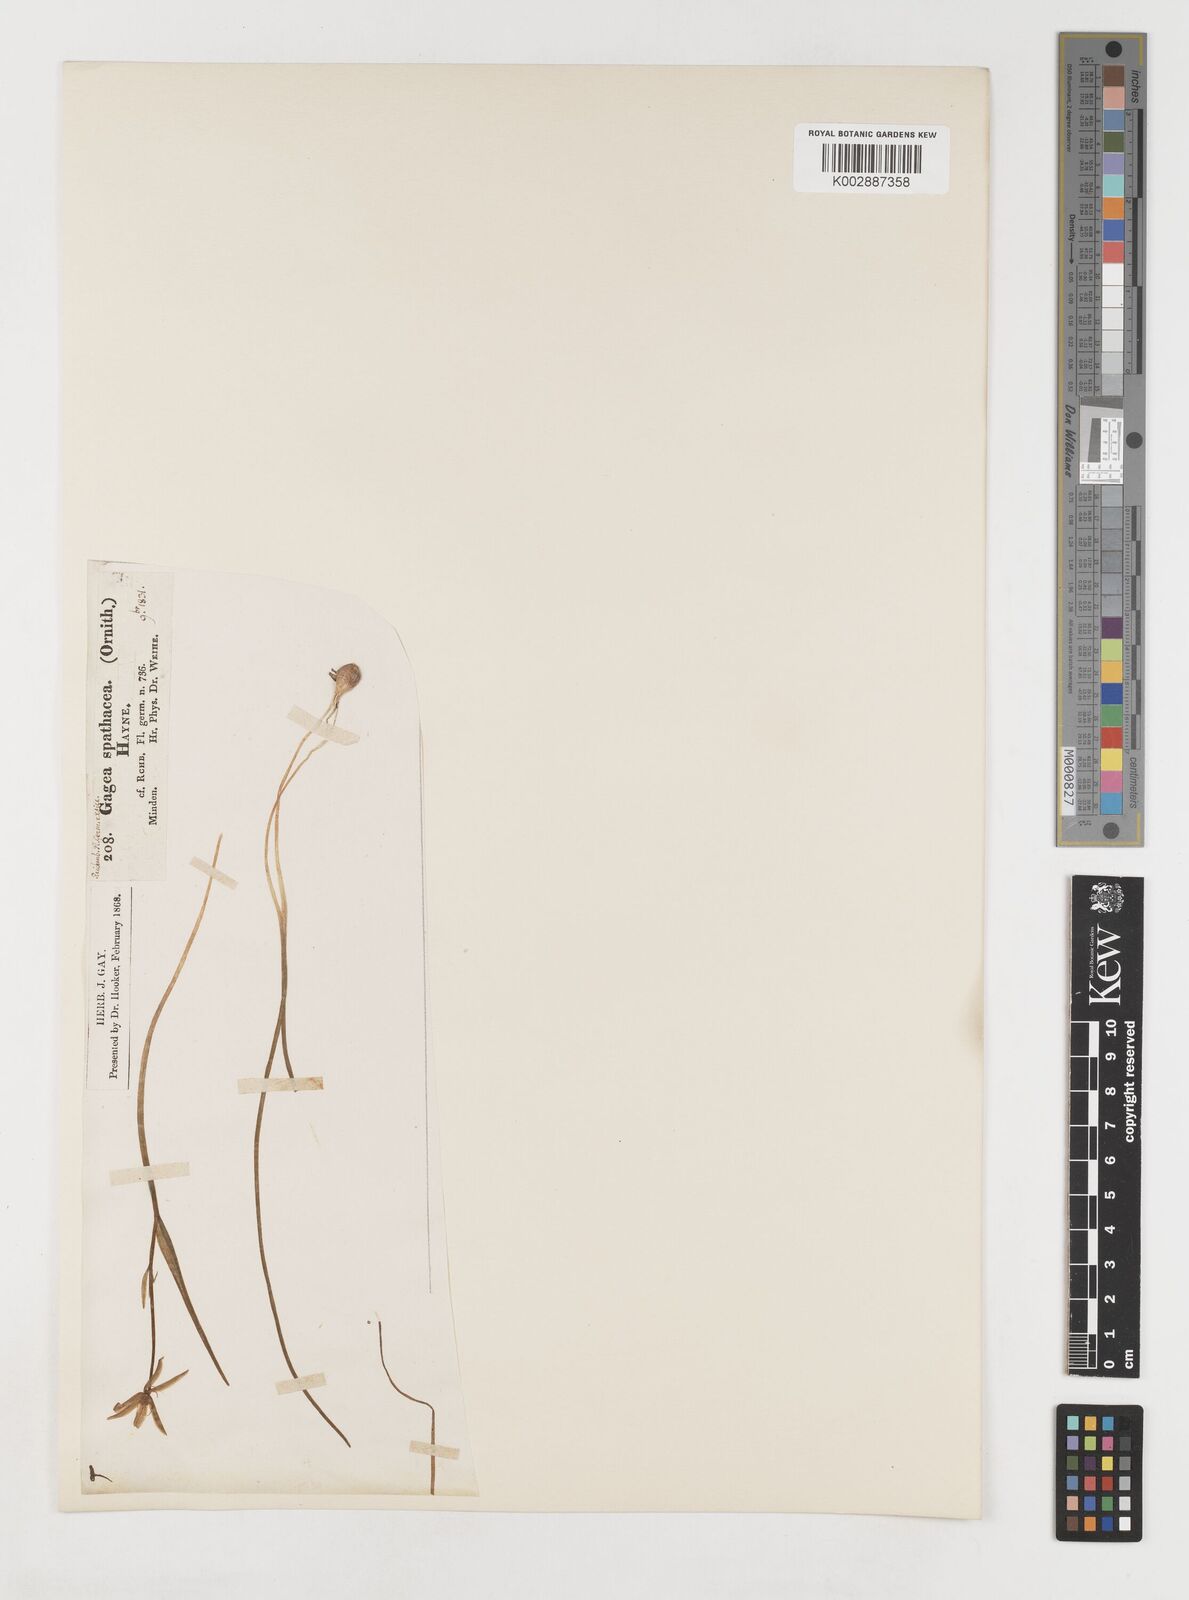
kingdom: Plantae
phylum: Tracheophyta
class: Liliopsida
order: Liliales
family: Liliaceae
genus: Gagea
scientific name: Gagea spathacea
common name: Belgian gagea
